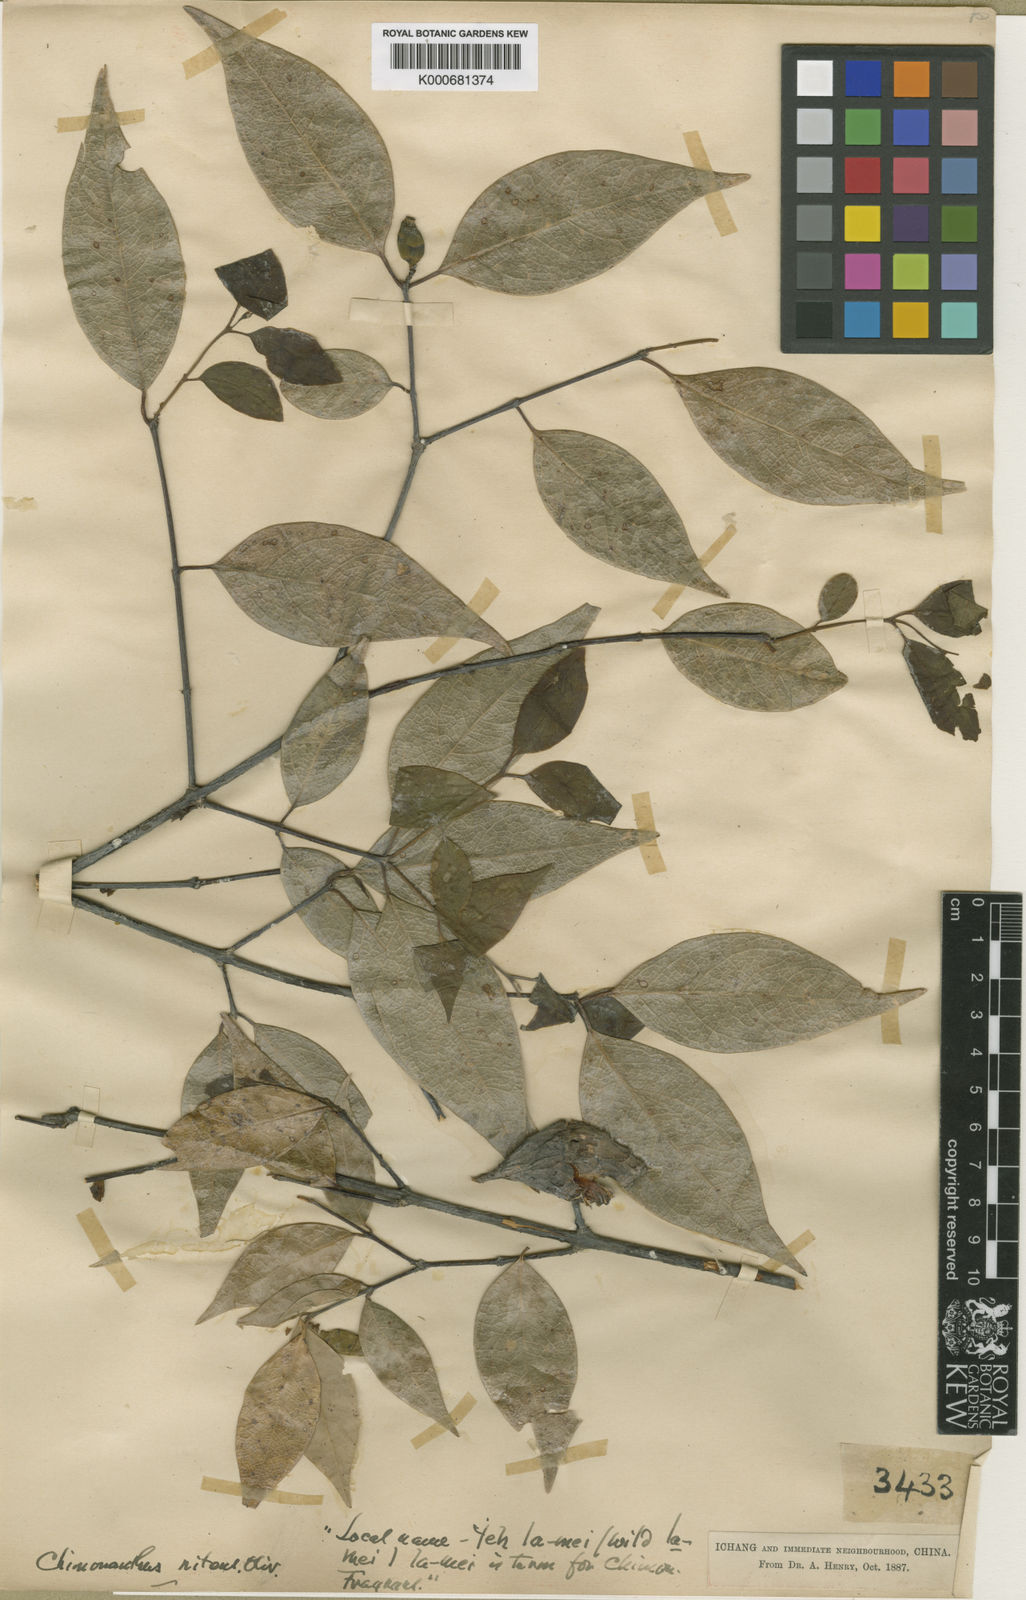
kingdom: Plantae
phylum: Tracheophyta
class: Magnoliopsida
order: Laurales
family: Calycanthaceae
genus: Chimonanthus
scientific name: Chimonanthus nitens
